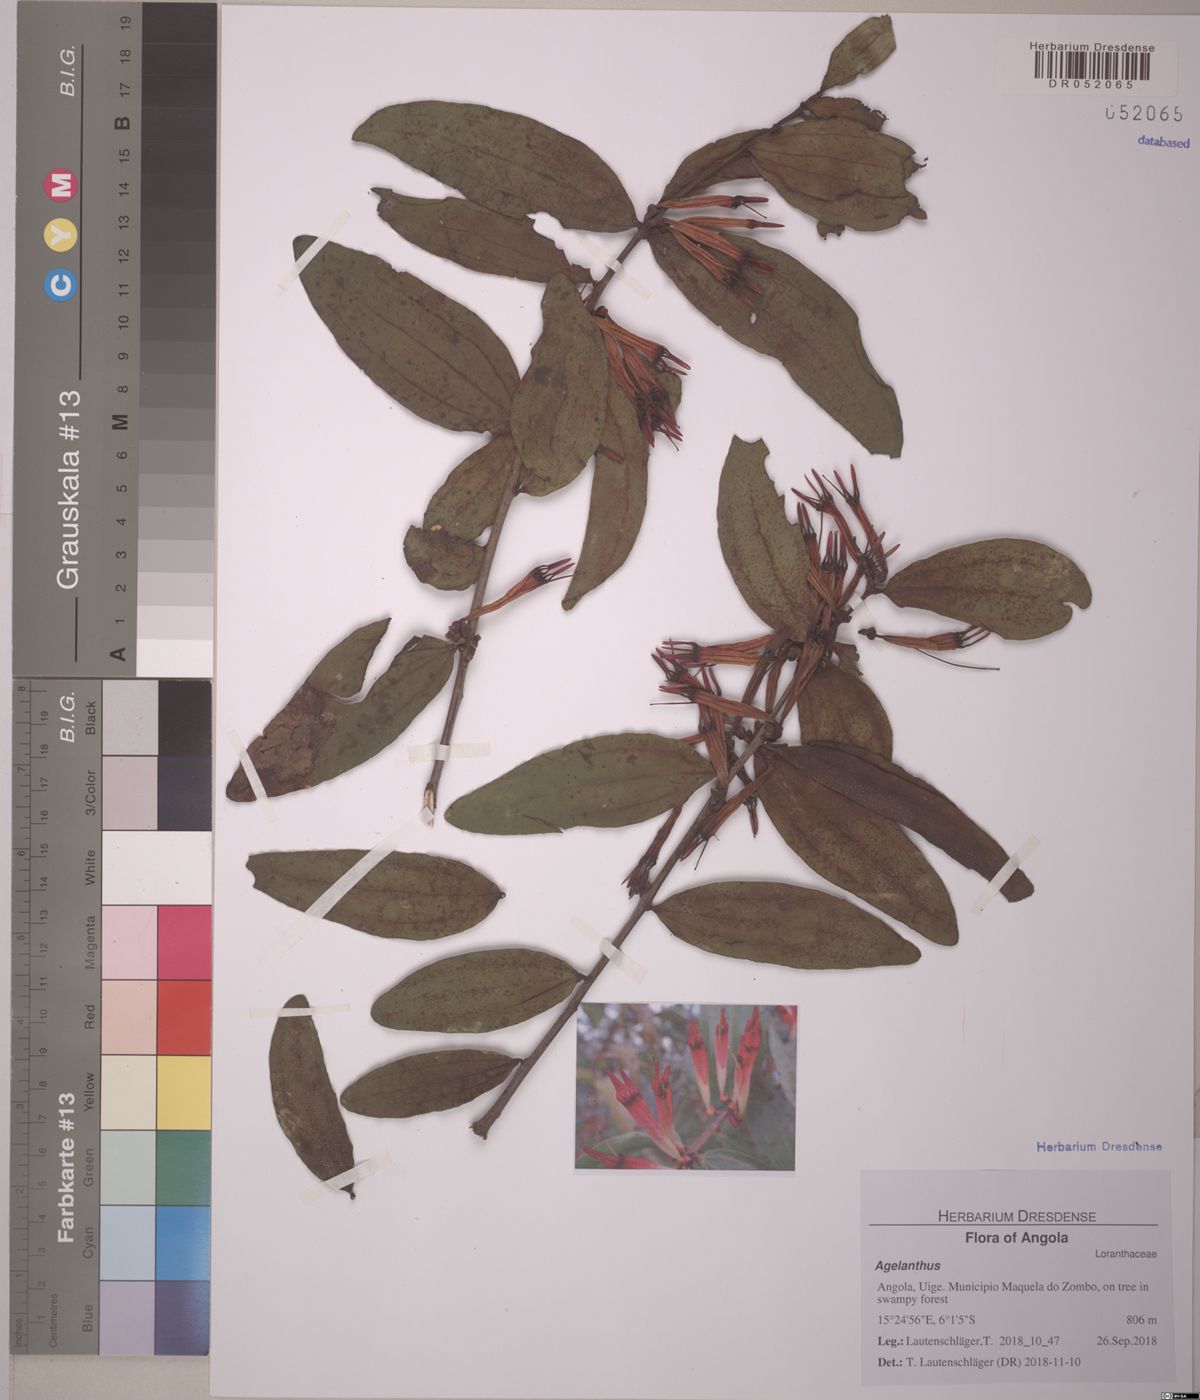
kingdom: Plantae
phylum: Tracheophyta
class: Magnoliopsida
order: Santalales
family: Loranthaceae
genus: Agelanthus
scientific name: Agelanthus
